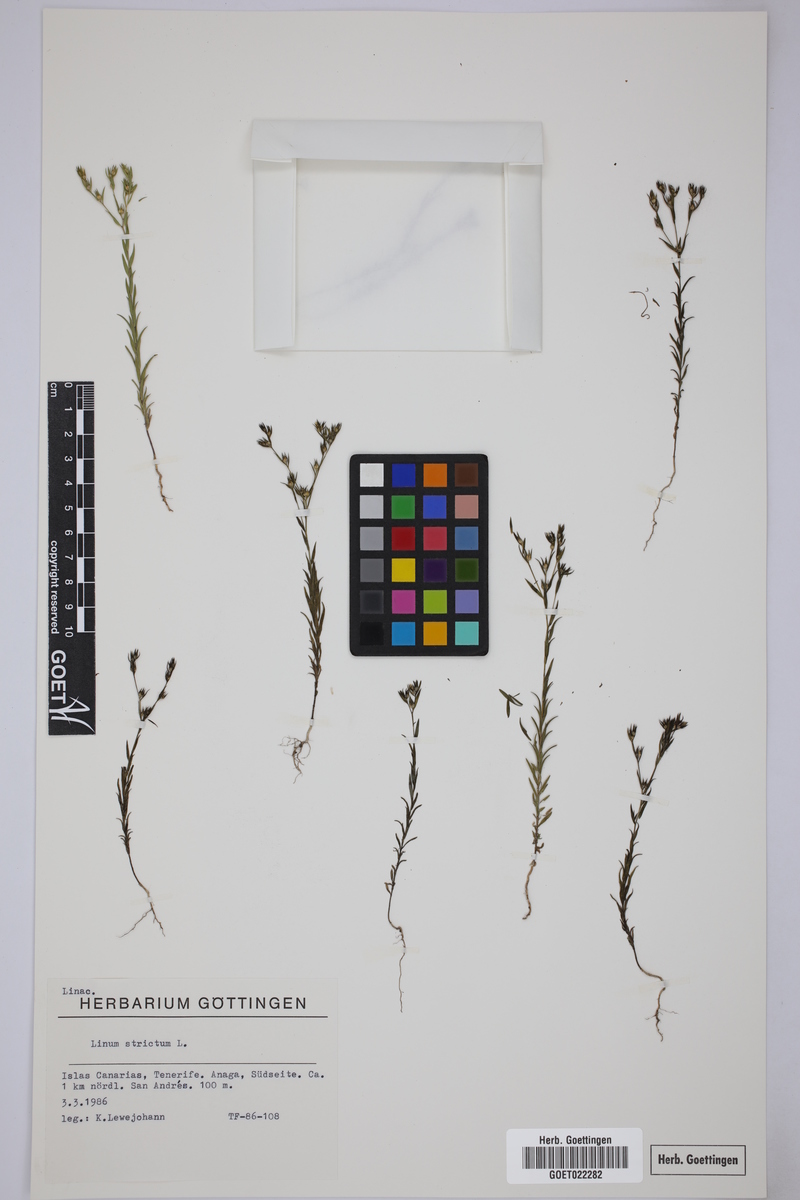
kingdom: Plantae
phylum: Tracheophyta
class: Magnoliopsida
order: Malpighiales
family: Linaceae
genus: Linum
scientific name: Linum strictum
